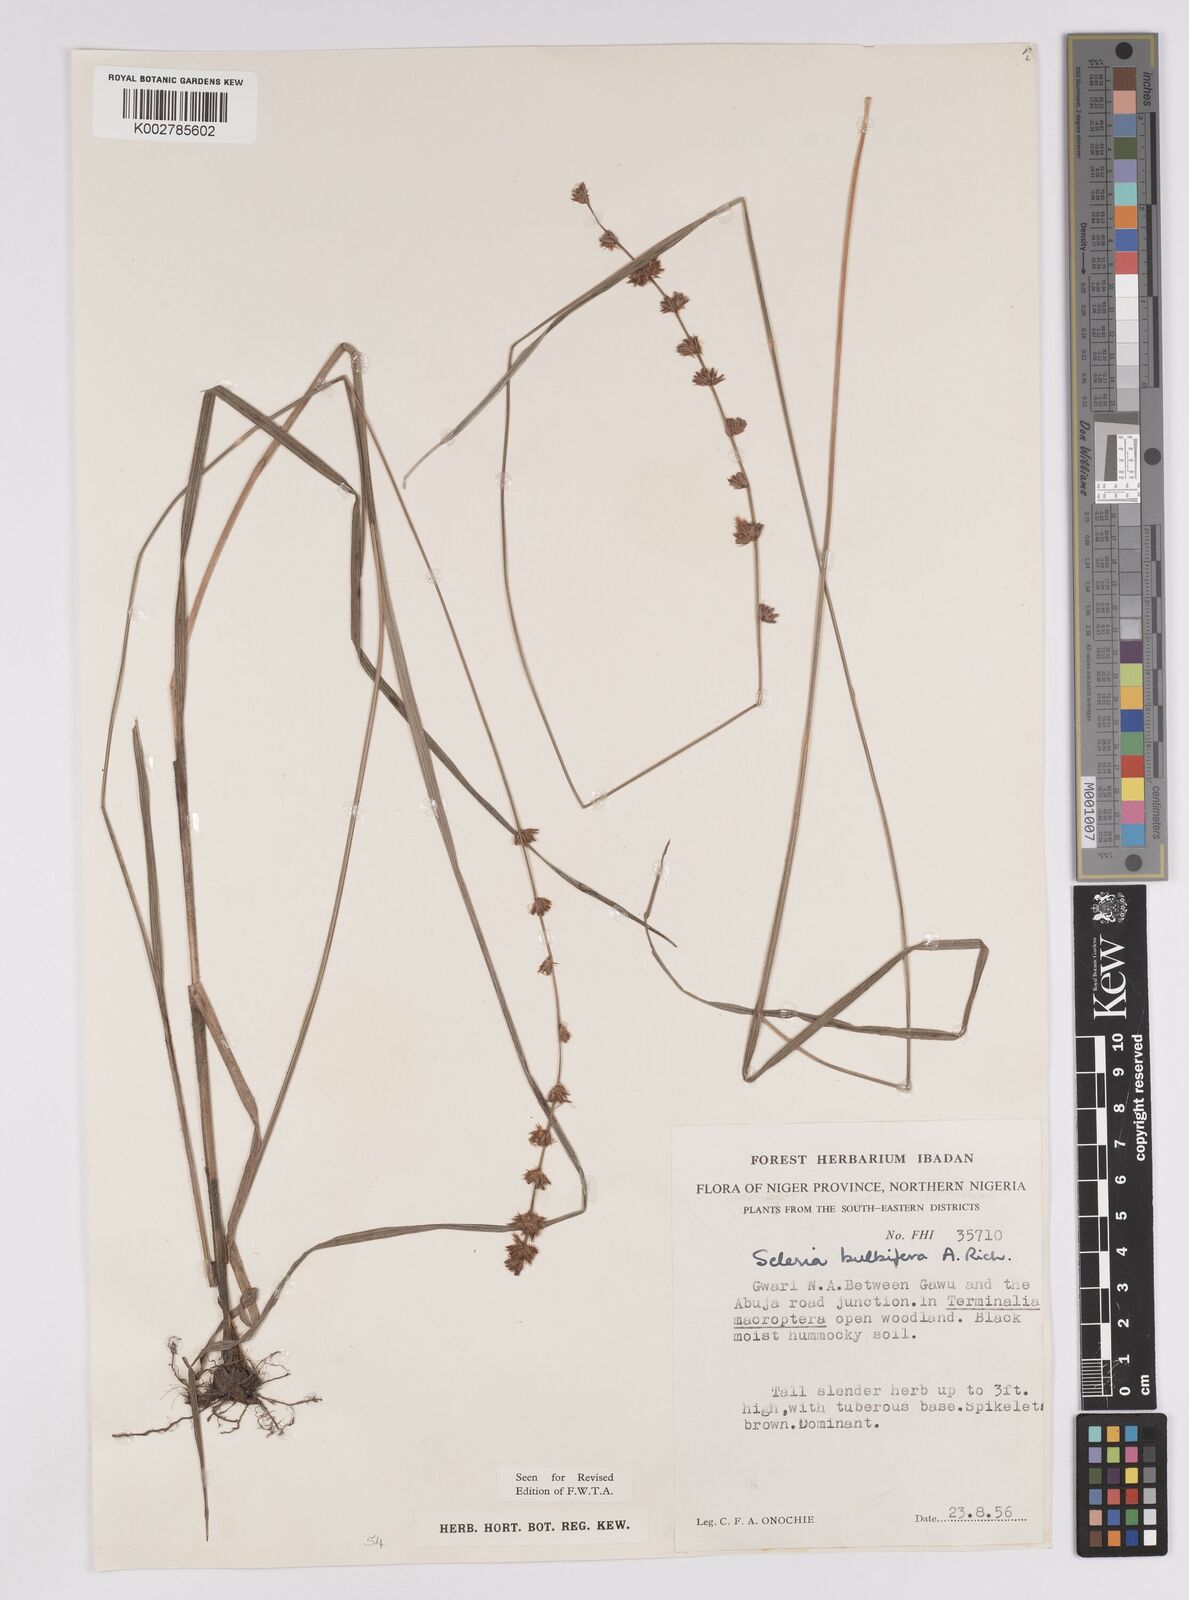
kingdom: Plantae
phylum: Tracheophyta
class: Liliopsida
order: Poales
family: Cyperaceae
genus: Scleria
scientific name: Scleria bulbifera
